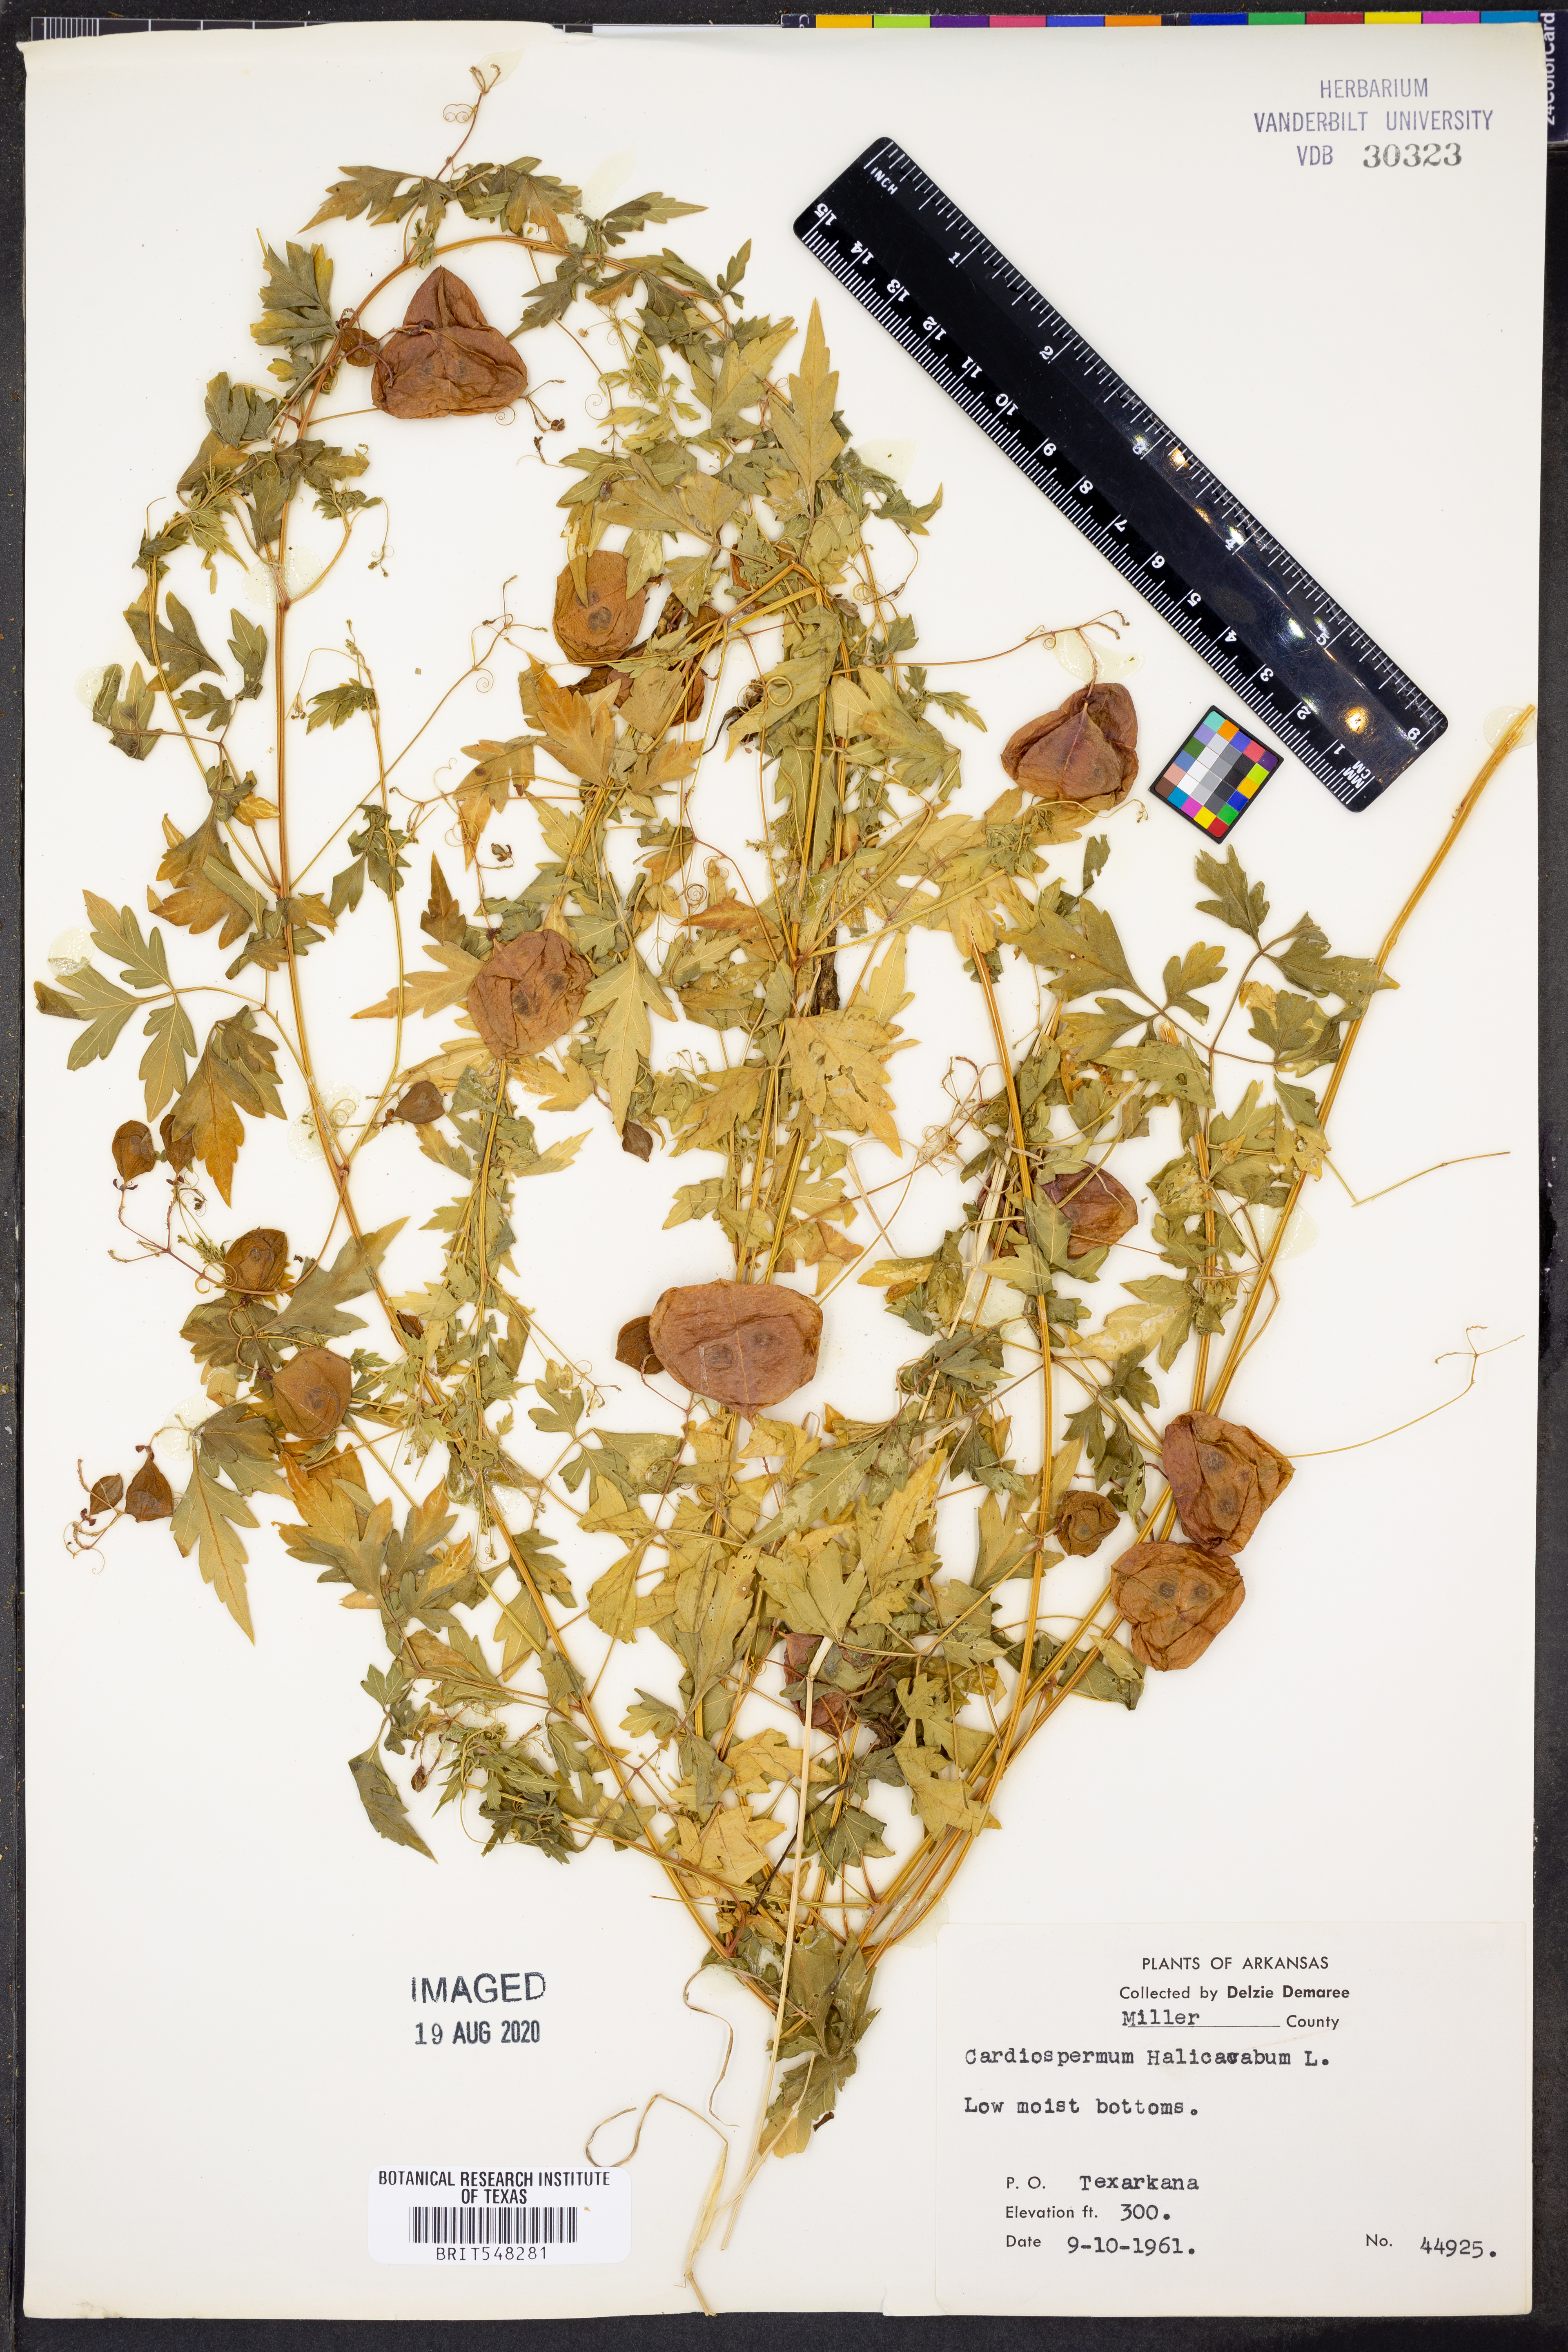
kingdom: Plantae
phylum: Tracheophyta
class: Magnoliopsida
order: Sapindales
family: Sapindaceae
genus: Cardiospermum
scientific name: Cardiospermum halicacabum
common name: Balloon vine
